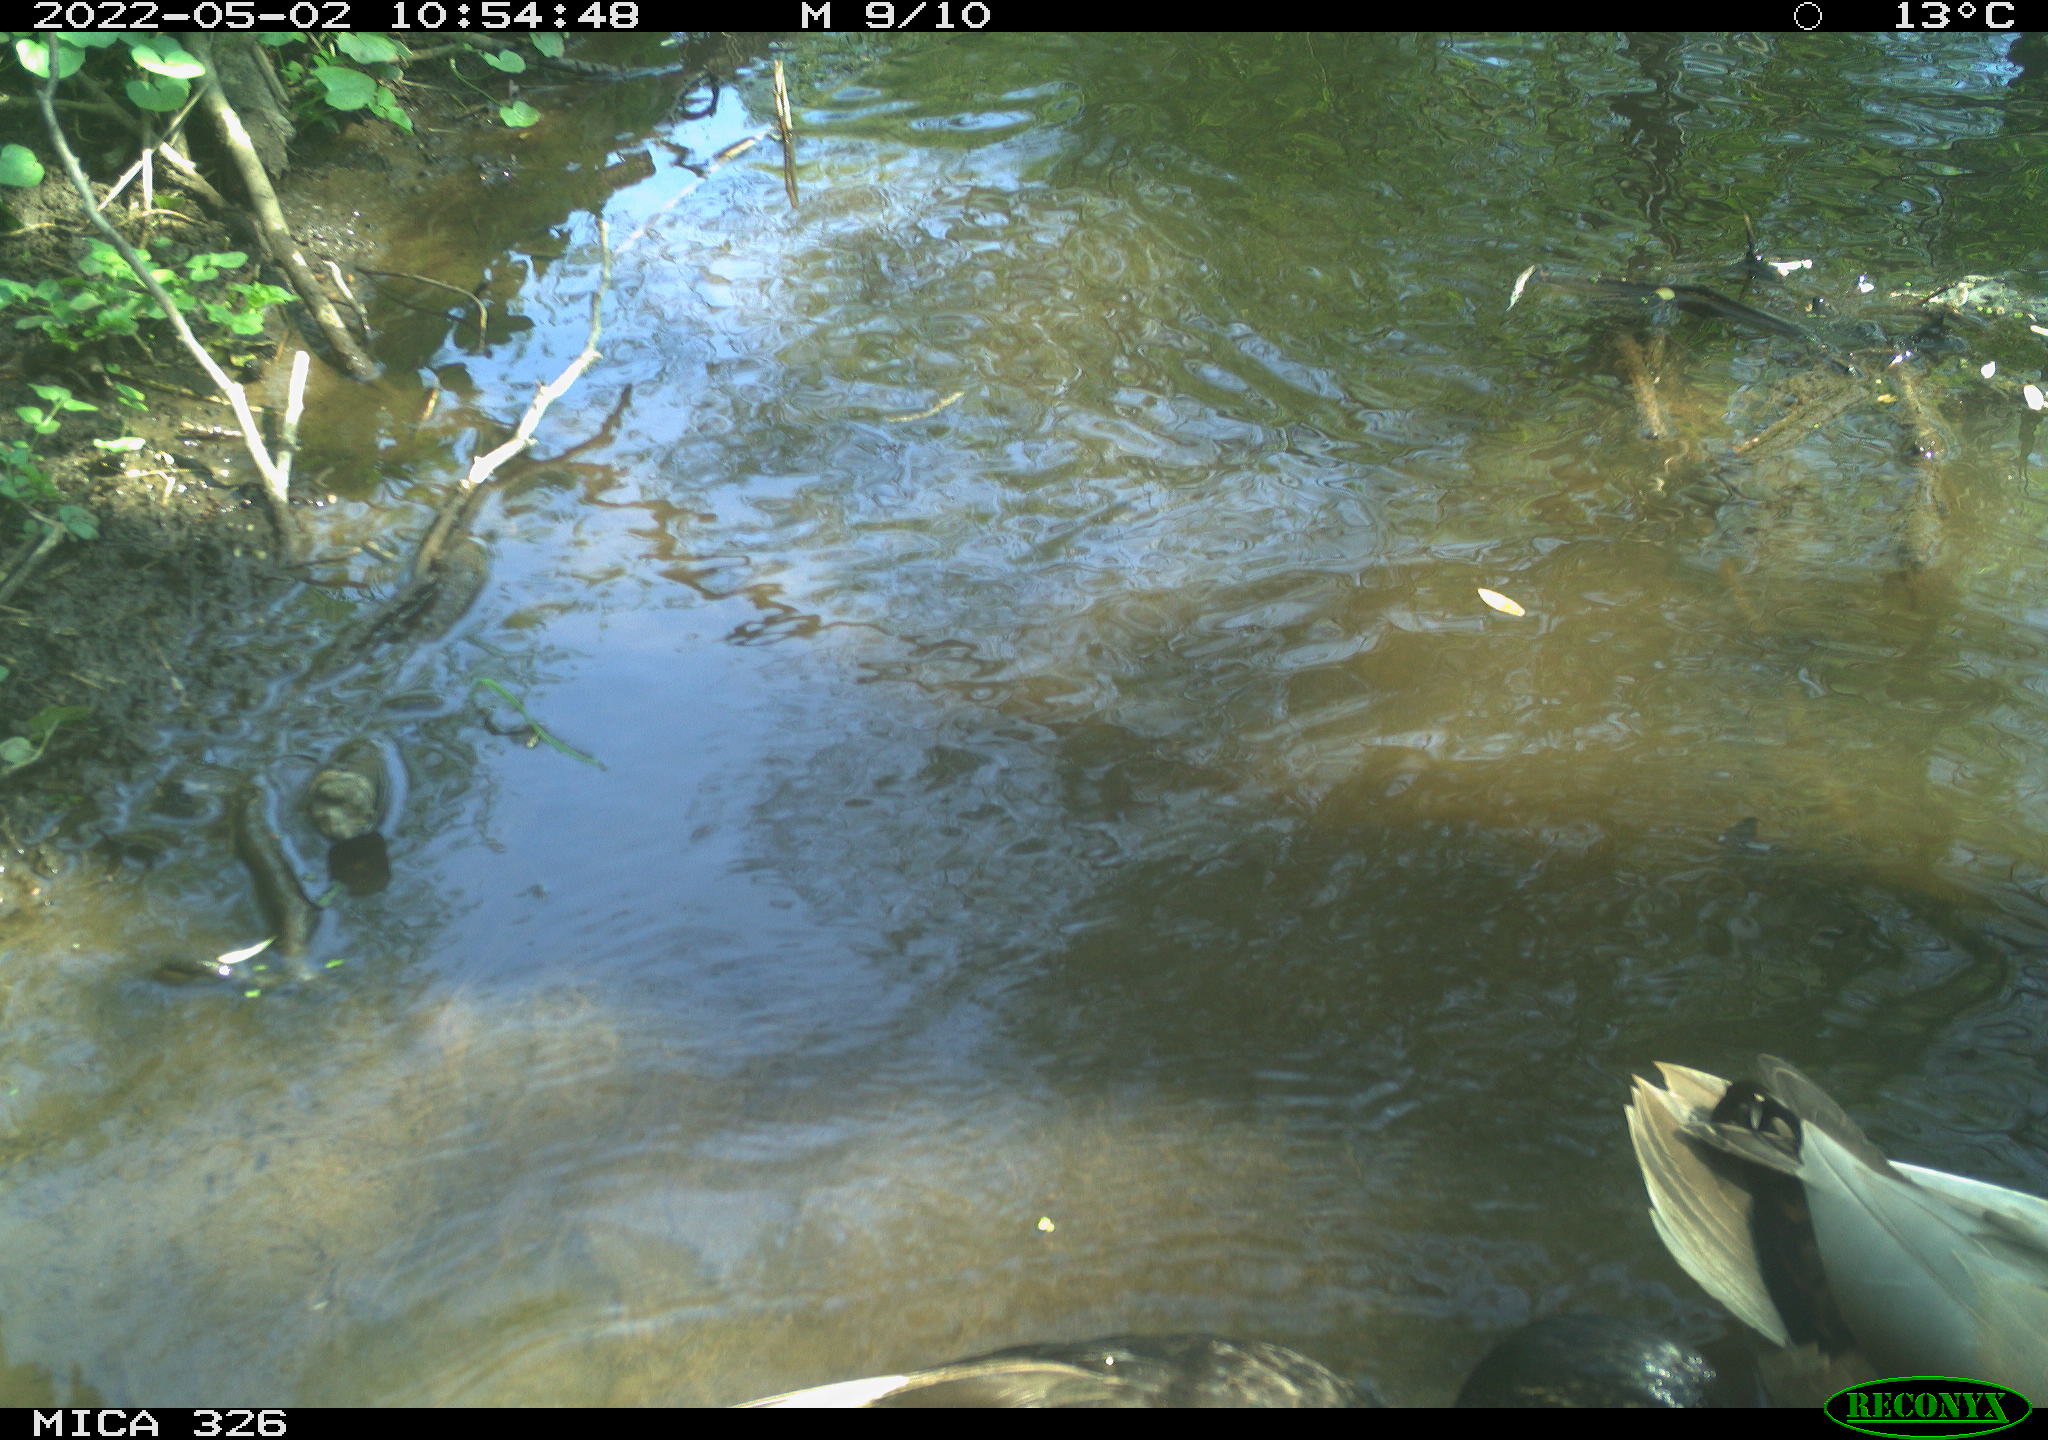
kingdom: Animalia
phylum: Chordata
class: Aves
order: Anseriformes
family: Anatidae
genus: Anas
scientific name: Anas platyrhynchos
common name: Mallard
